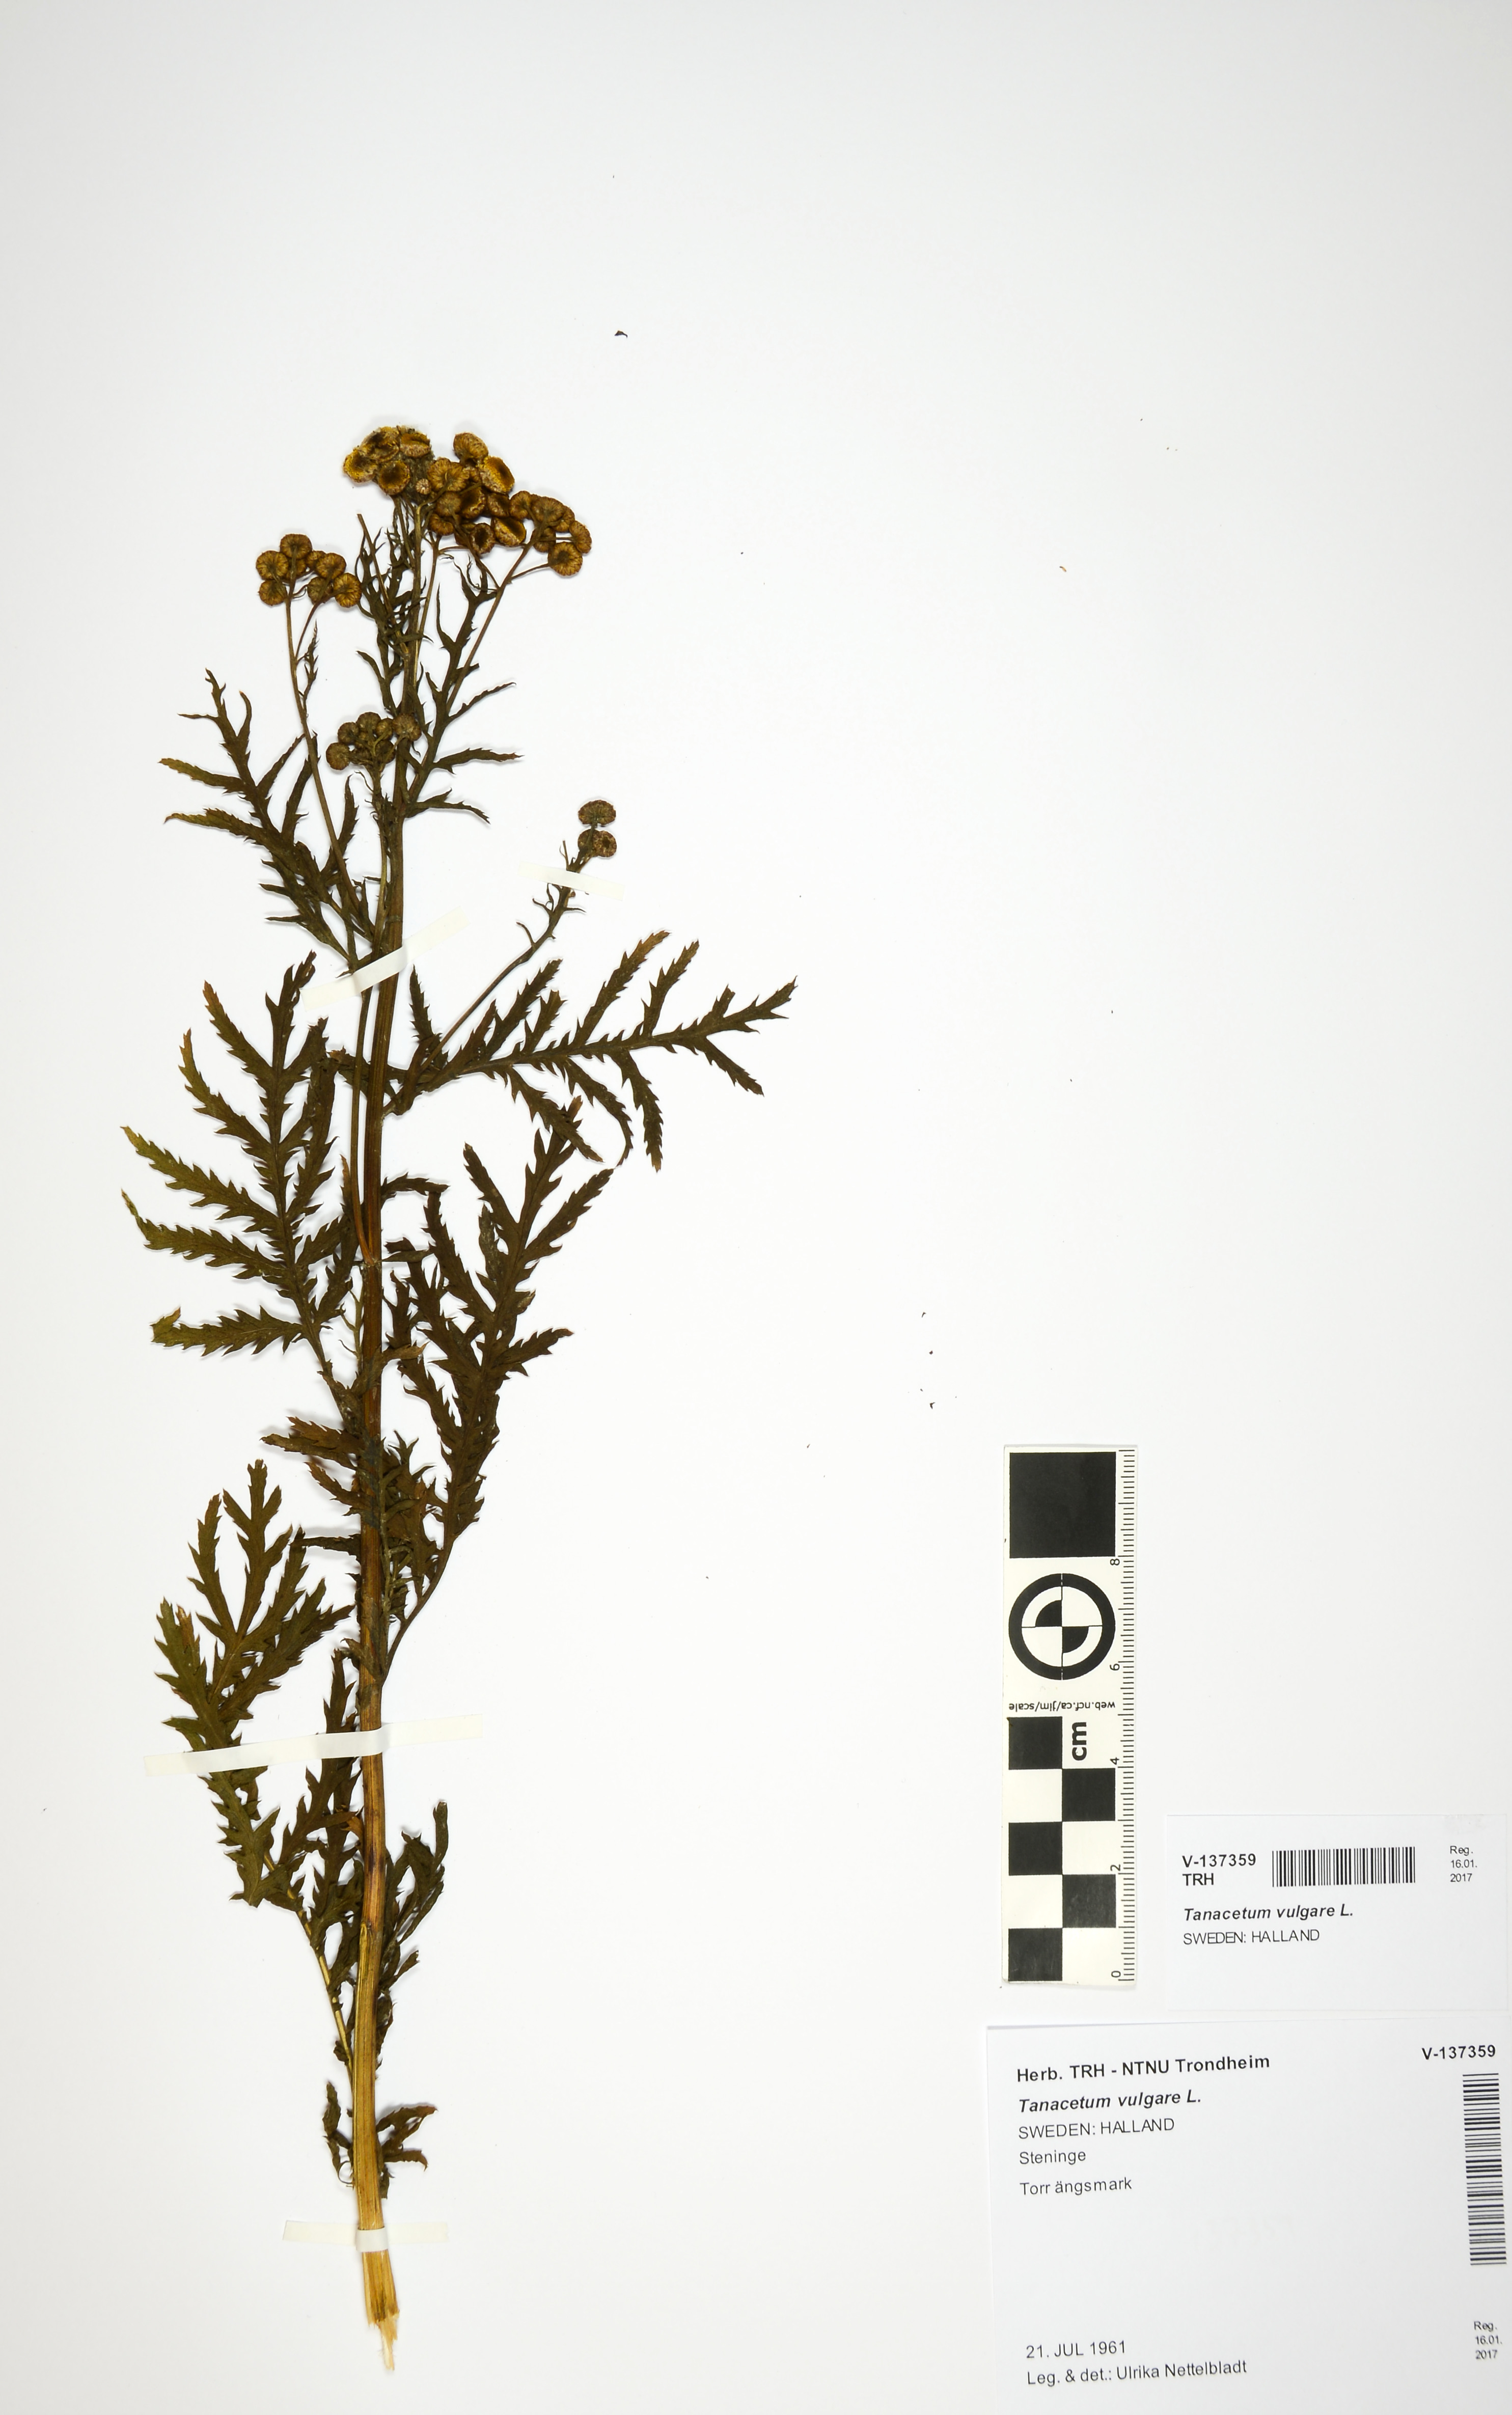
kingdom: Plantae
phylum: Tracheophyta
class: Magnoliopsida
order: Asterales
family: Asteraceae
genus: Tanacetum
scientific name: Tanacetum vulgare
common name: Common tansy
